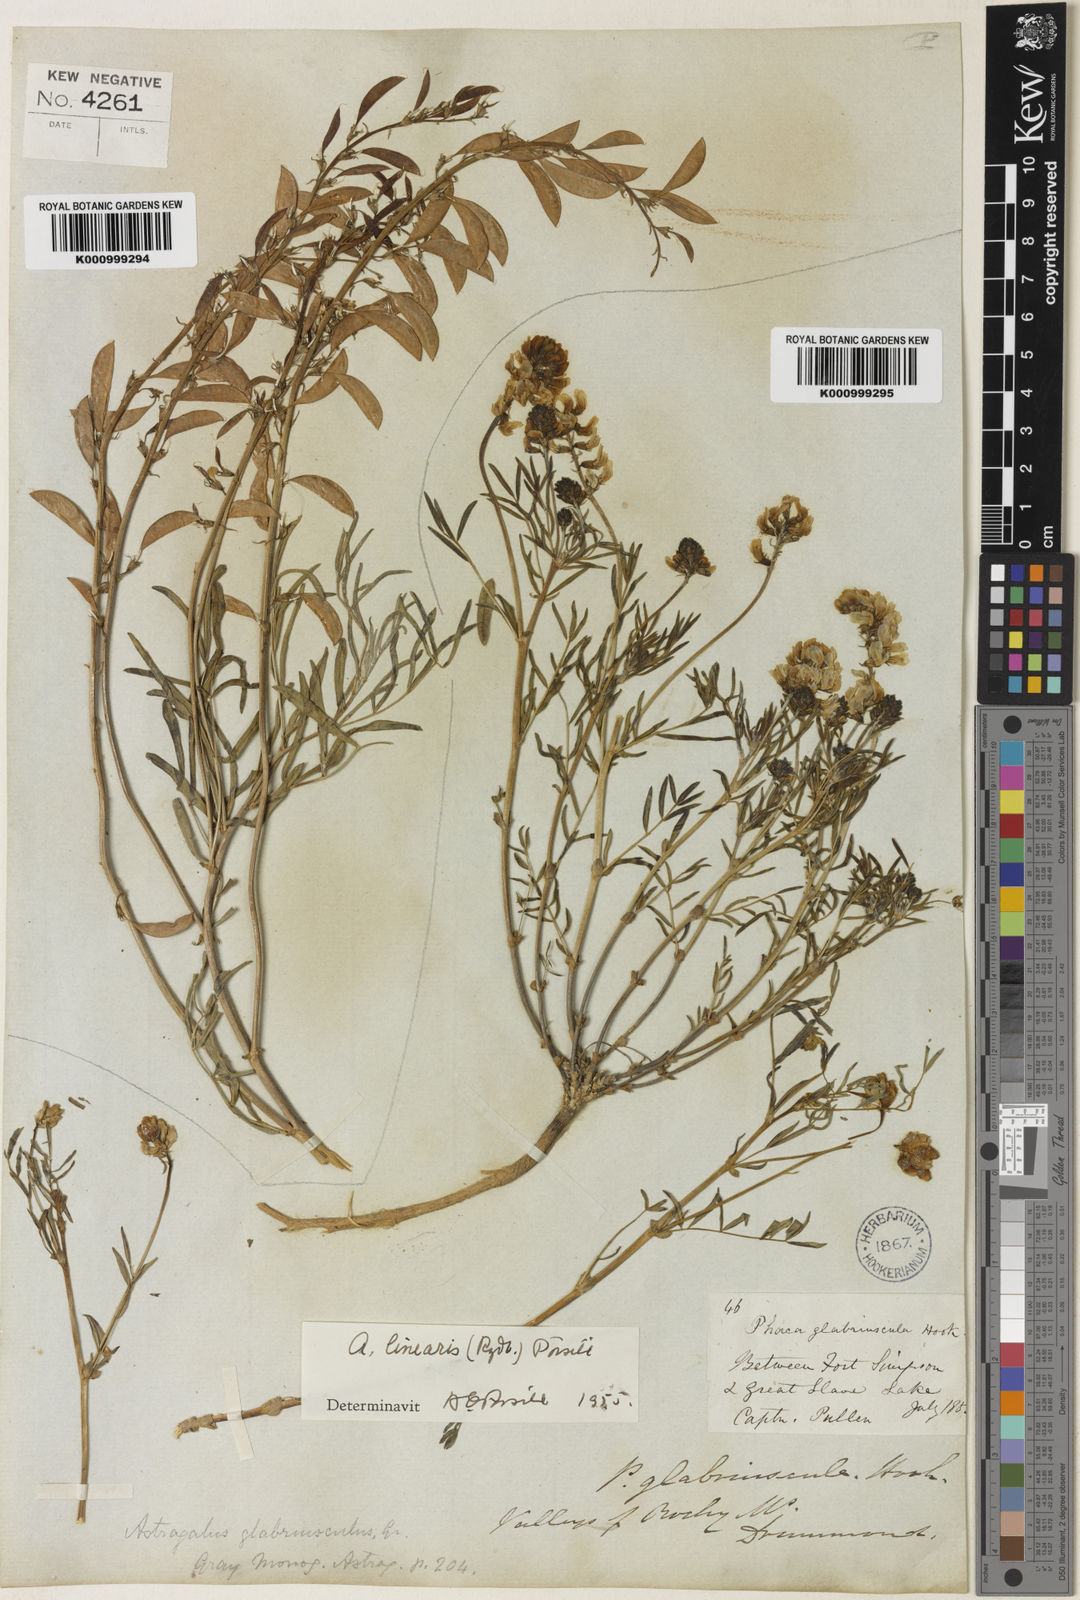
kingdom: Plantae
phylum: Tracheophyta
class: Magnoliopsida
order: Fabales
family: Fabaceae
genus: Astragalus
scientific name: Astragalus aboriginorum
